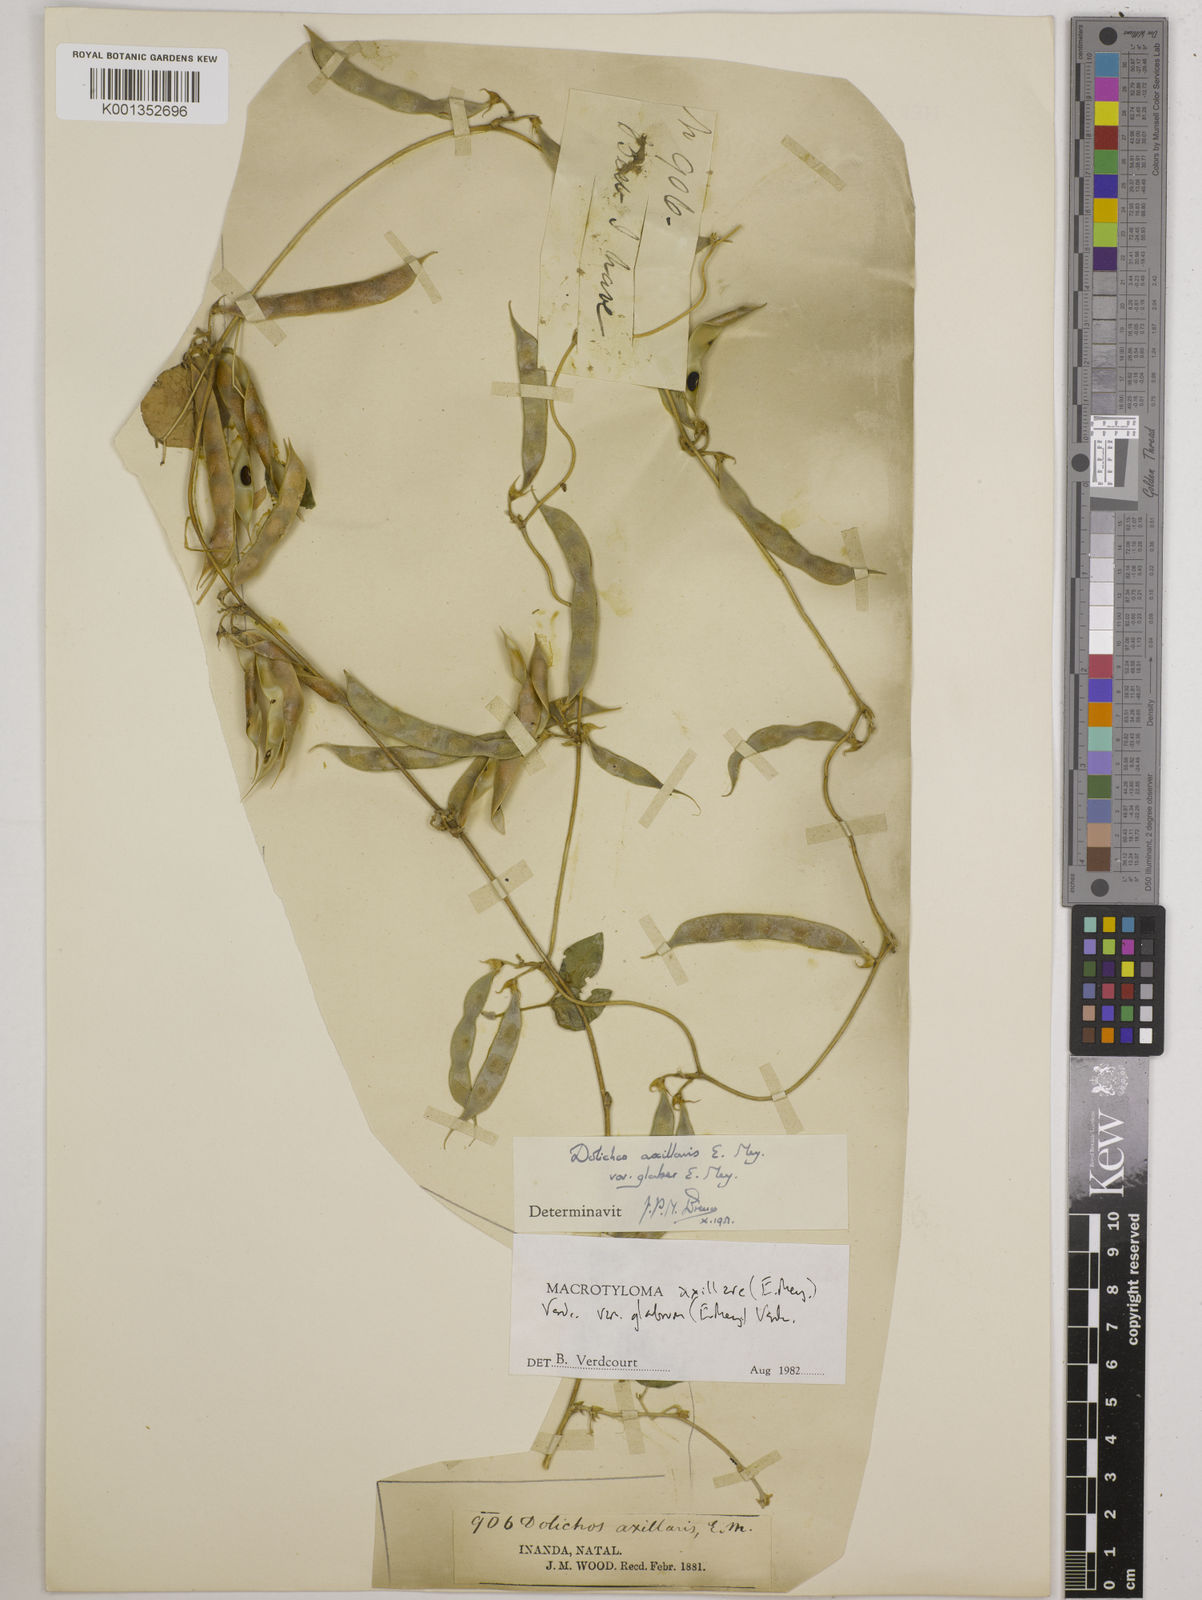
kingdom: Plantae
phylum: Tracheophyta
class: Magnoliopsida
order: Fabales
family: Fabaceae
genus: Macrotyloma
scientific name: Macrotyloma
